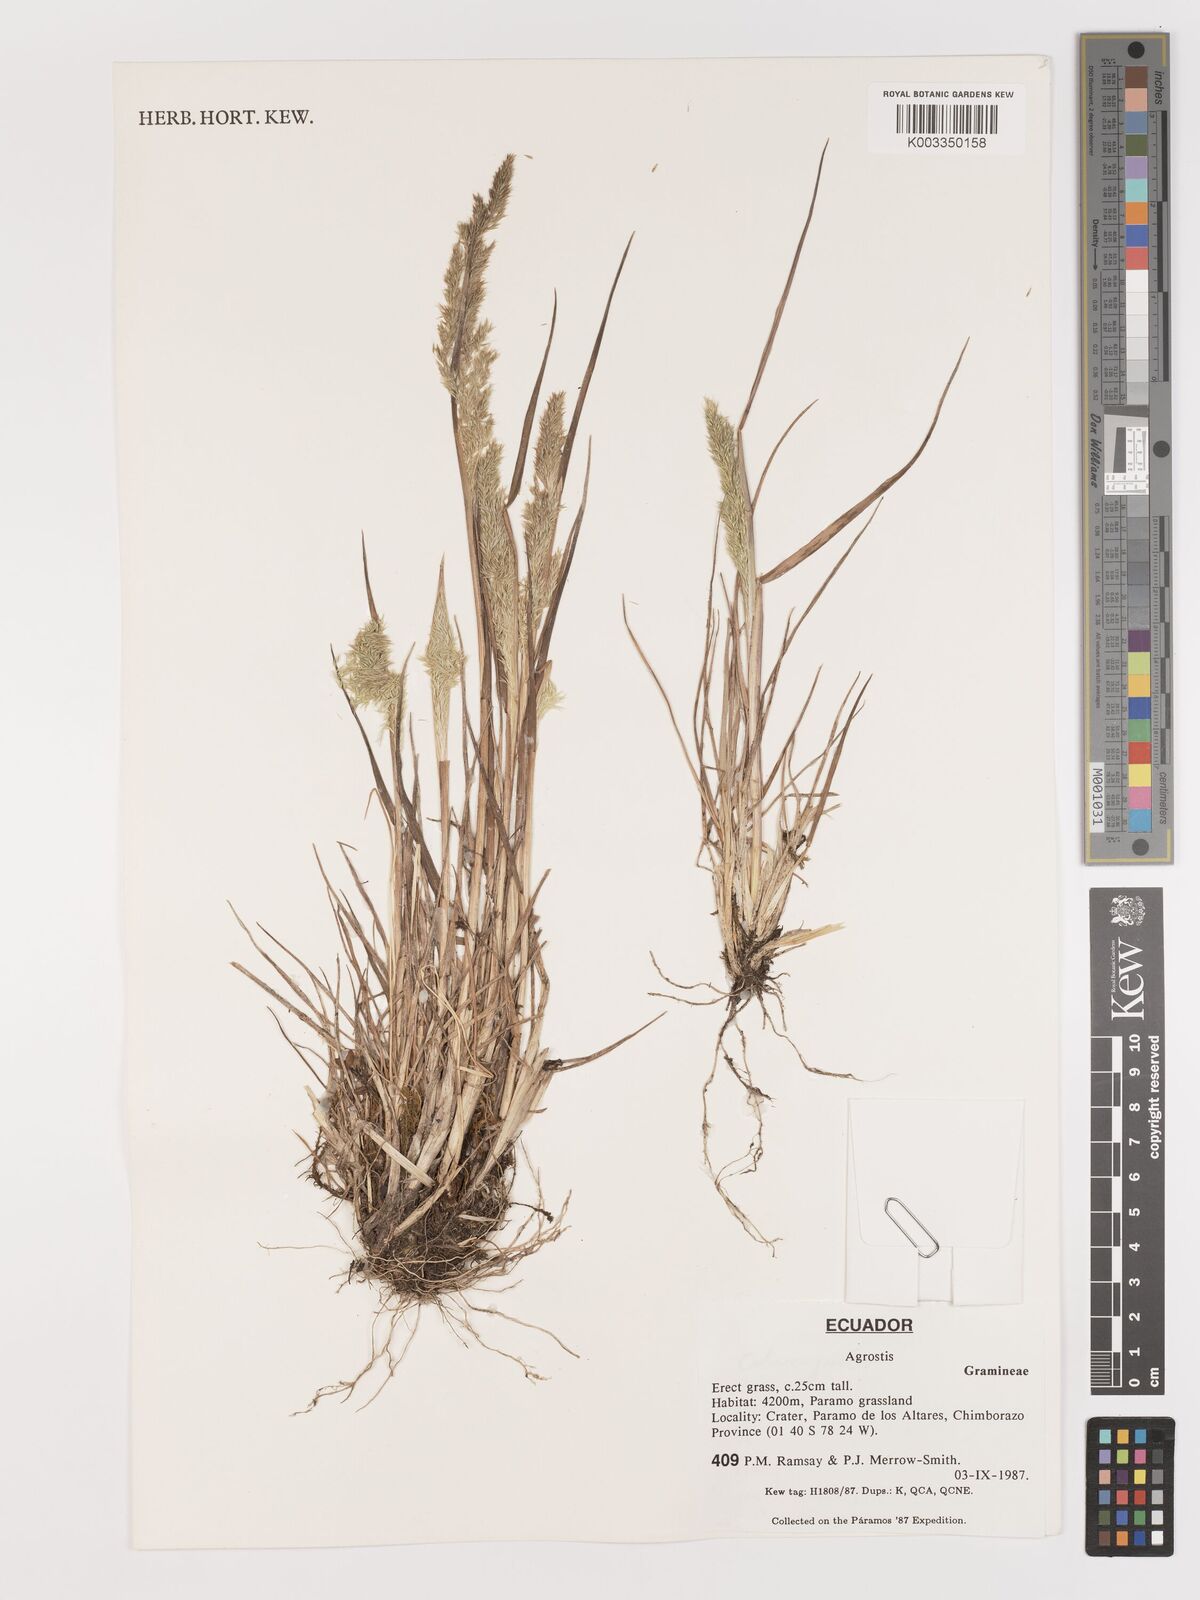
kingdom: Plantae
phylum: Tracheophyta
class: Liliopsida
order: Poales
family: Poaceae
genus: Agrostis
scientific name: Agrostis
